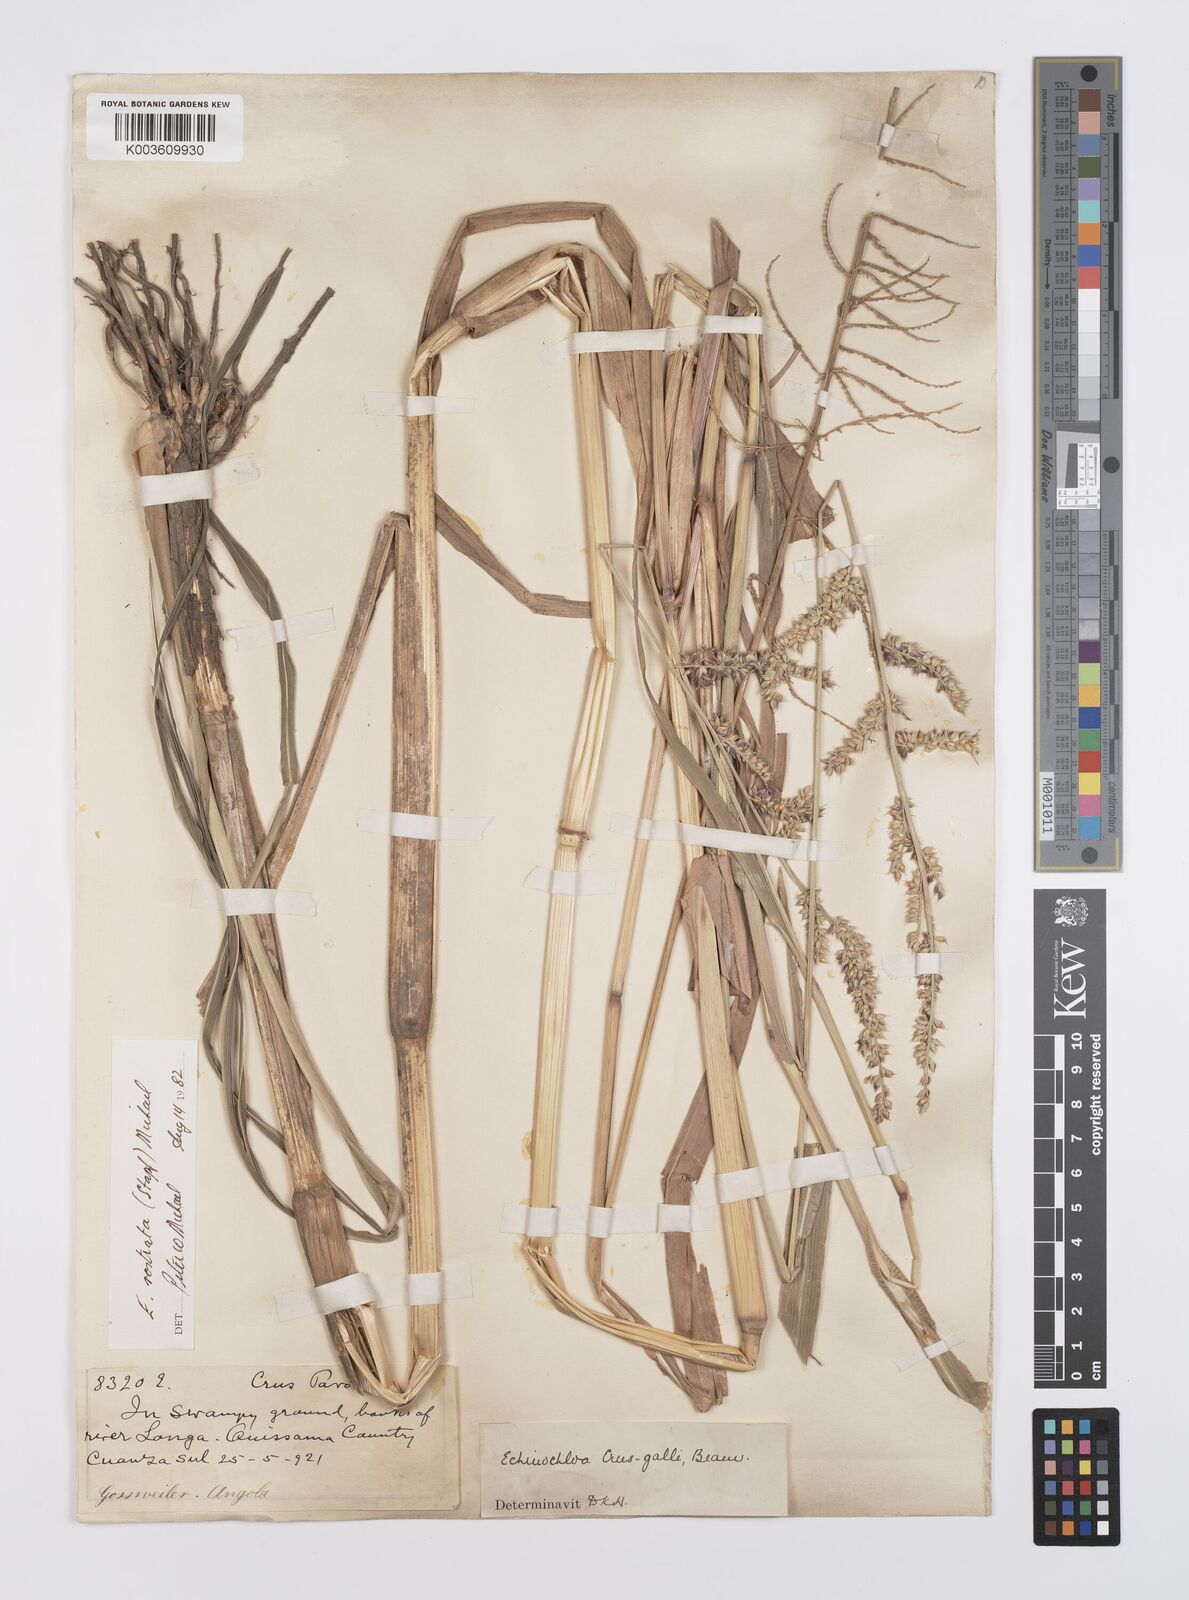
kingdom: Plantae
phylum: Tracheophyta
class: Liliopsida
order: Poales
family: Poaceae
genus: Echinochloa
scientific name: Echinochloa crus-pavonis
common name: Gulf cockspur grass
